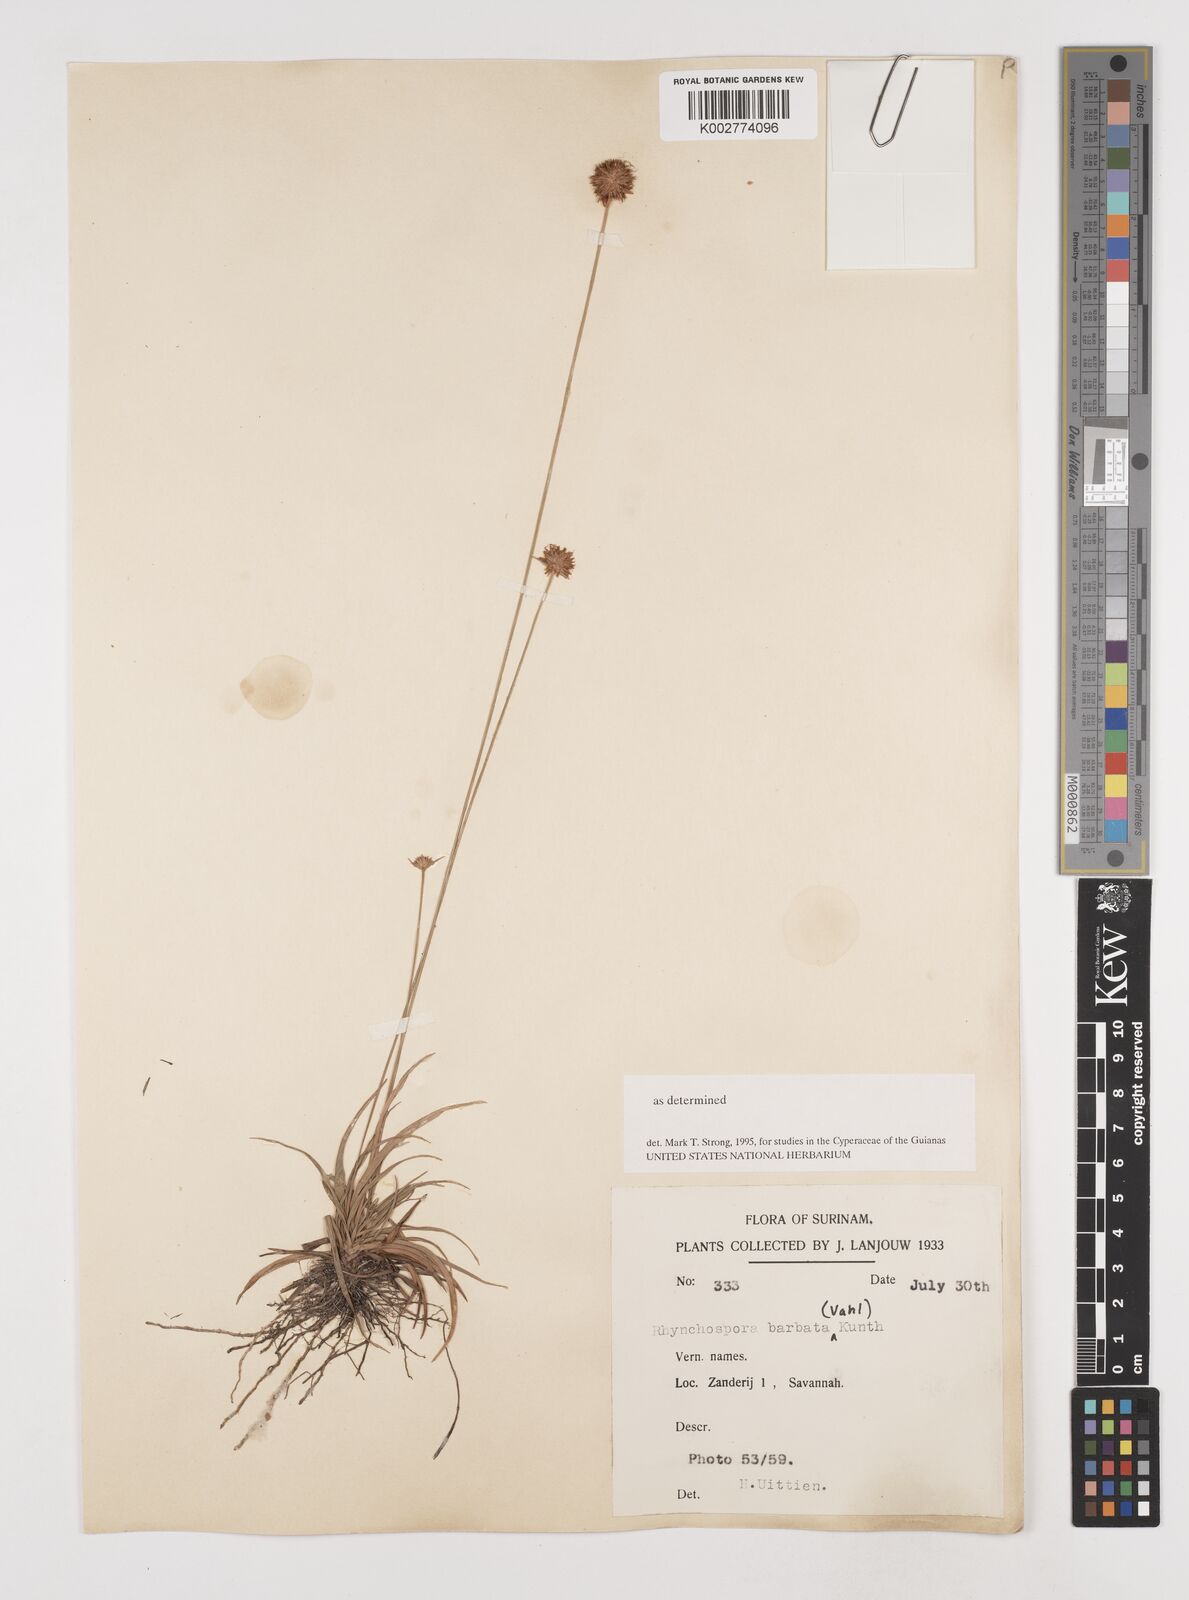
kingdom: Plantae
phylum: Tracheophyta
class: Liliopsida
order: Poales
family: Cyperaceae
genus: Rhynchospora
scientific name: Rhynchospora barbata
